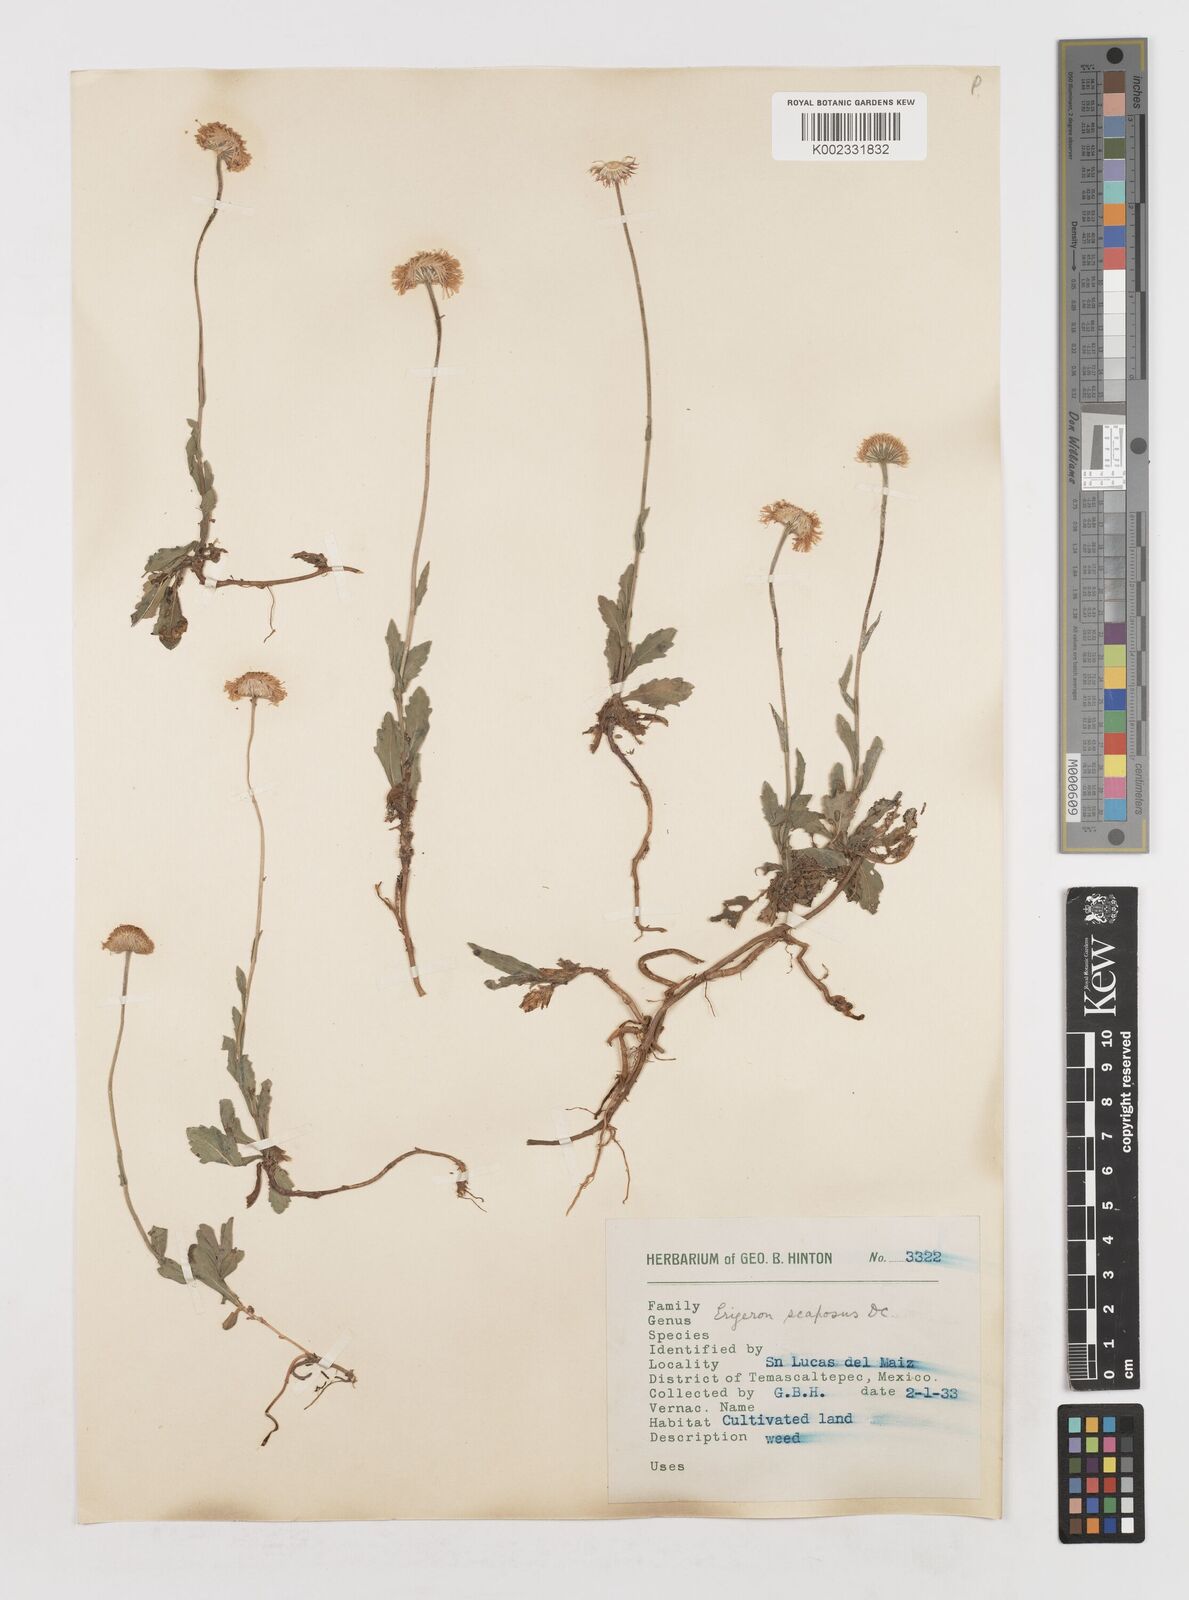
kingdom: Plantae
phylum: Tracheophyta
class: Magnoliopsida
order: Asterales
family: Asteraceae
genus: Erigeron
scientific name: Erigeron longipes
